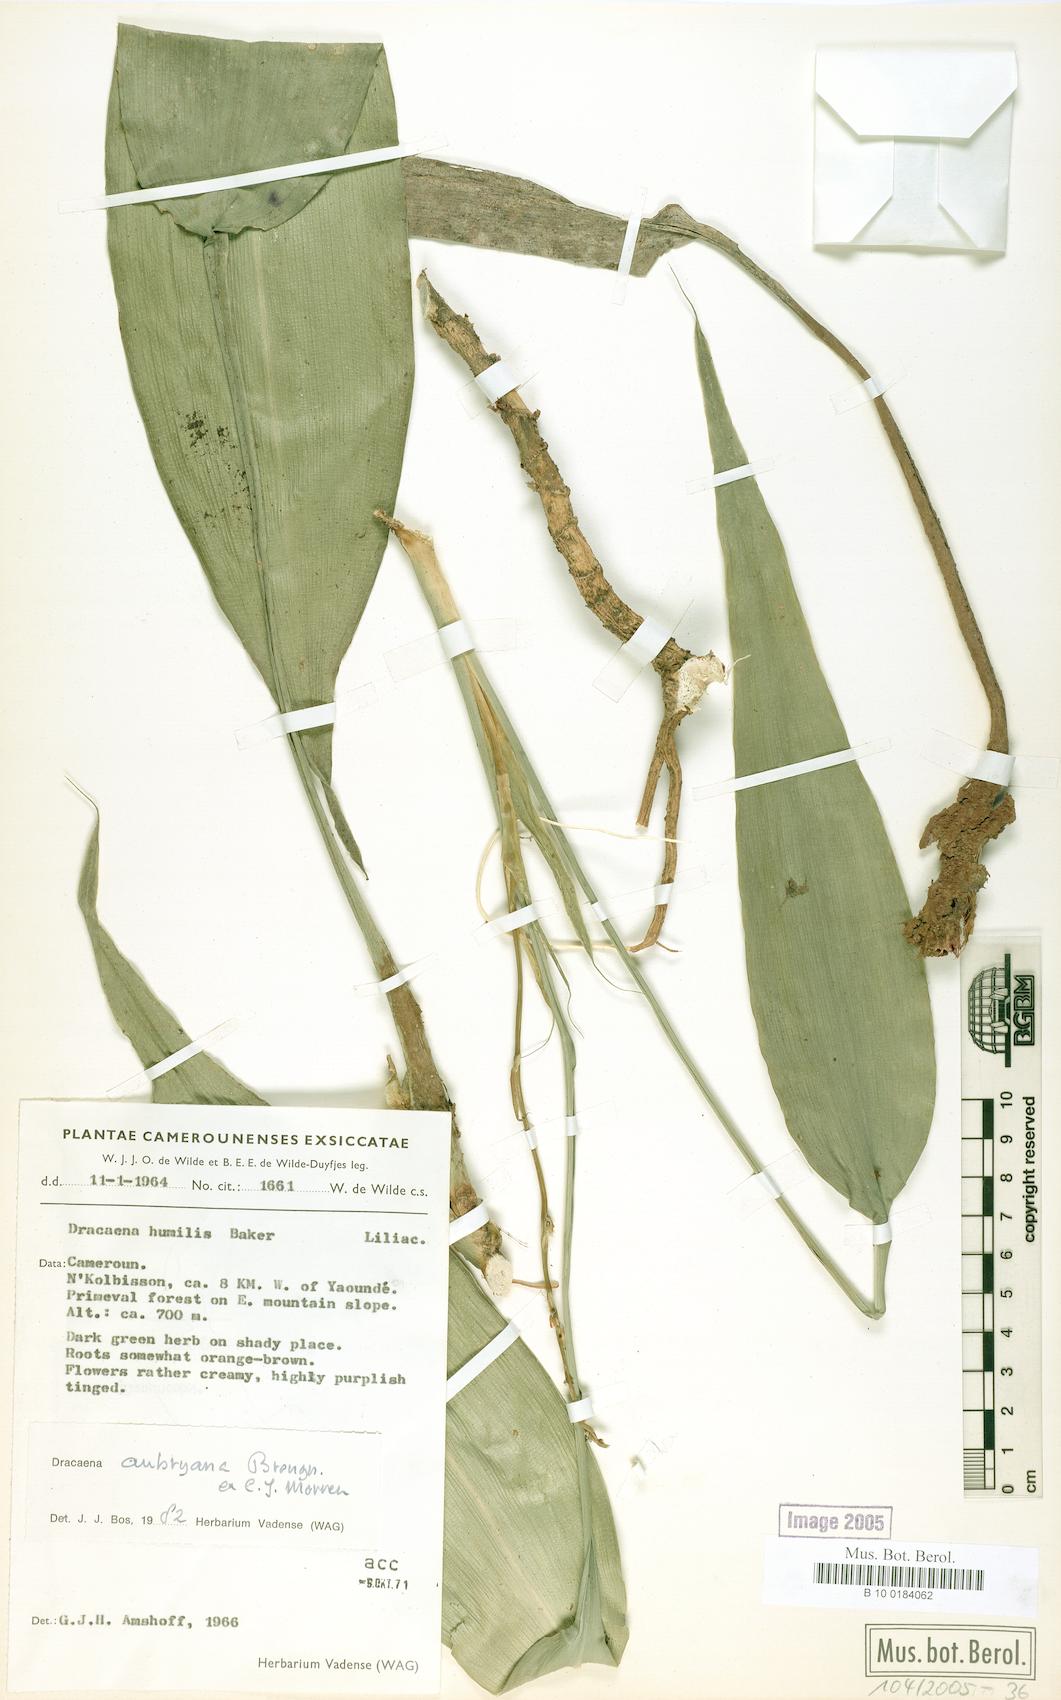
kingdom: Plantae
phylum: Tracheophyta
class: Liliopsida
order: Asparagales
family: Asparagaceae
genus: Dracaena
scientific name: Dracaena kindtiana
